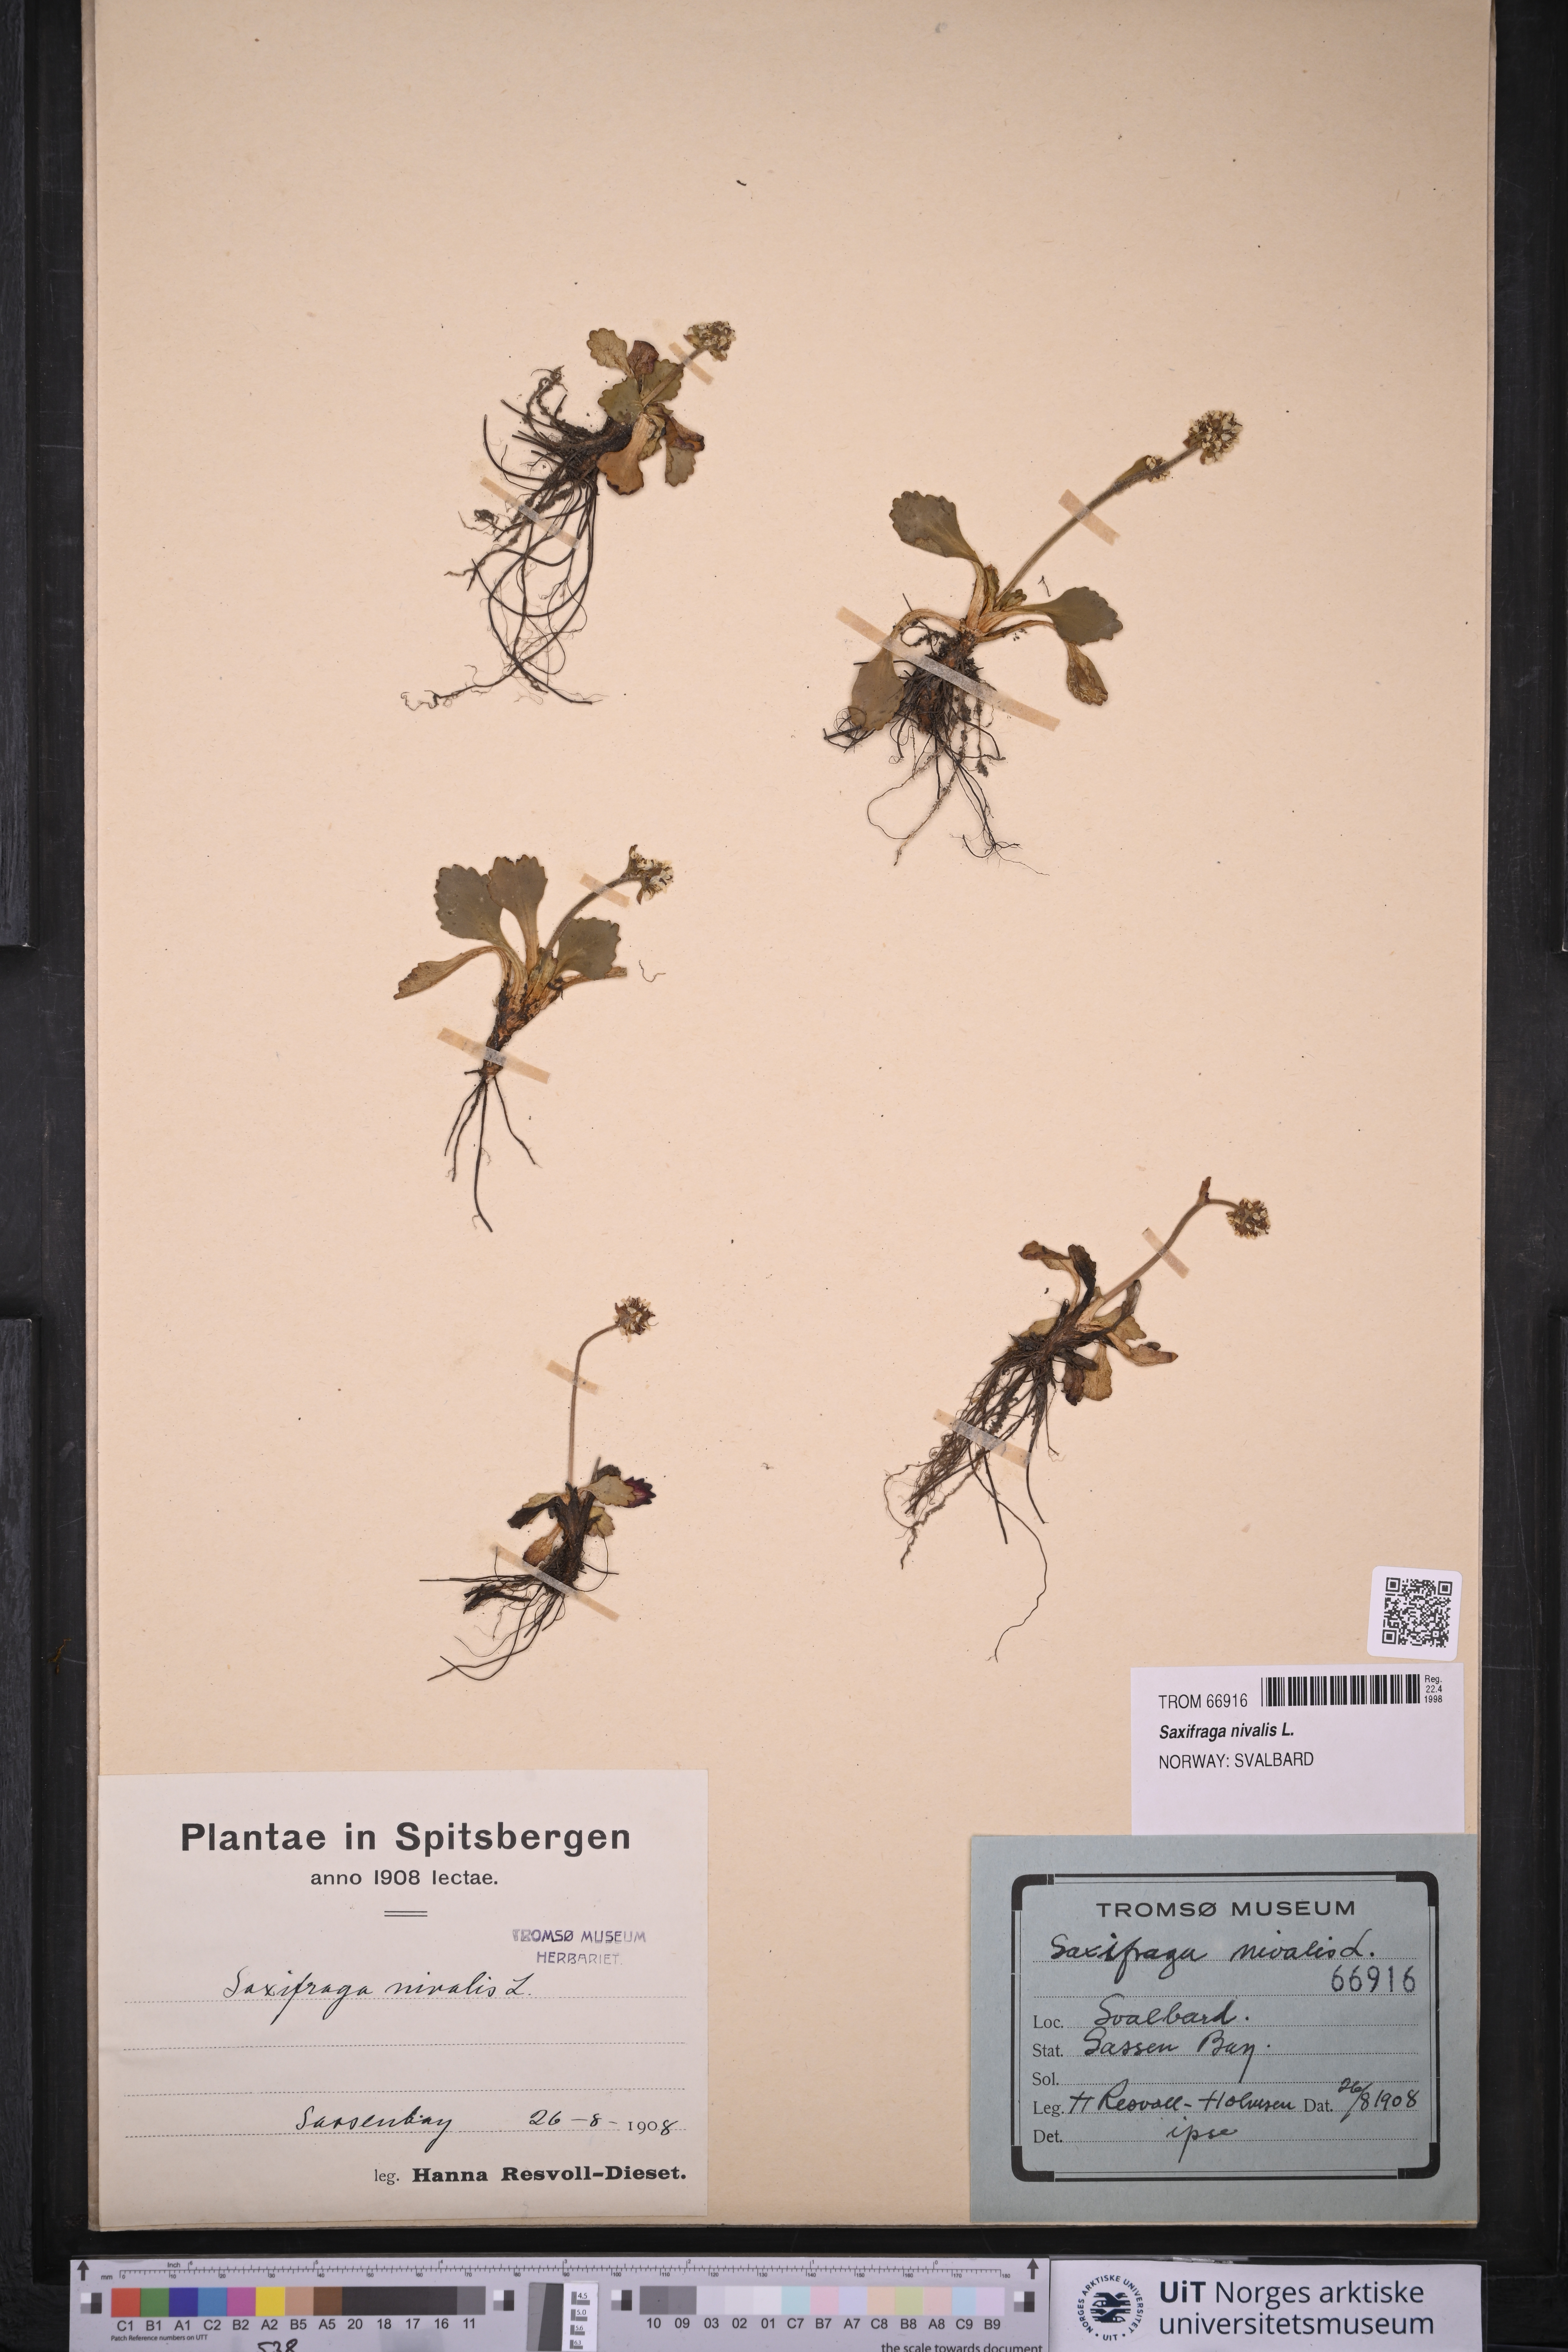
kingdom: Plantae
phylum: Tracheophyta
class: Magnoliopsida
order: Saxifragales
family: Saxifragaceae
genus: Micranthes
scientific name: Micranthes nivalis
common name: Alpine saxifrage
